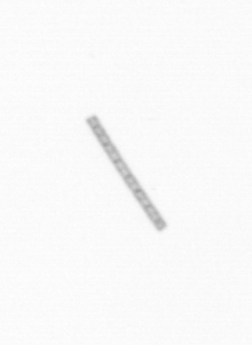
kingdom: Chromista
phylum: Ochrophyta
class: Bacillariophyceae
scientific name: Bacillariophyceae
